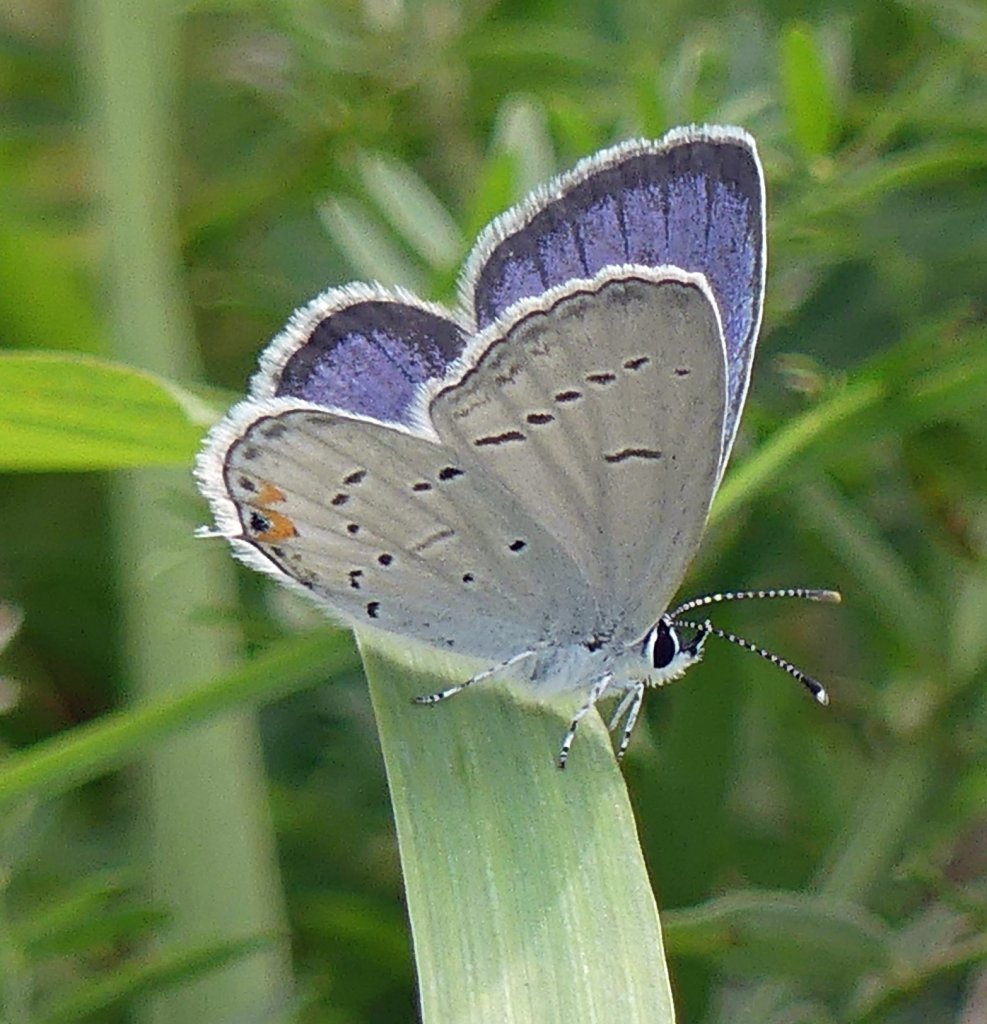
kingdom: Animalia
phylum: Arthropoda
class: Insecta
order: Lepidoptera
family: Lycaenidae
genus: Elkalyce
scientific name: Elkalyce comyntas
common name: Eastern Tailed-Blue
